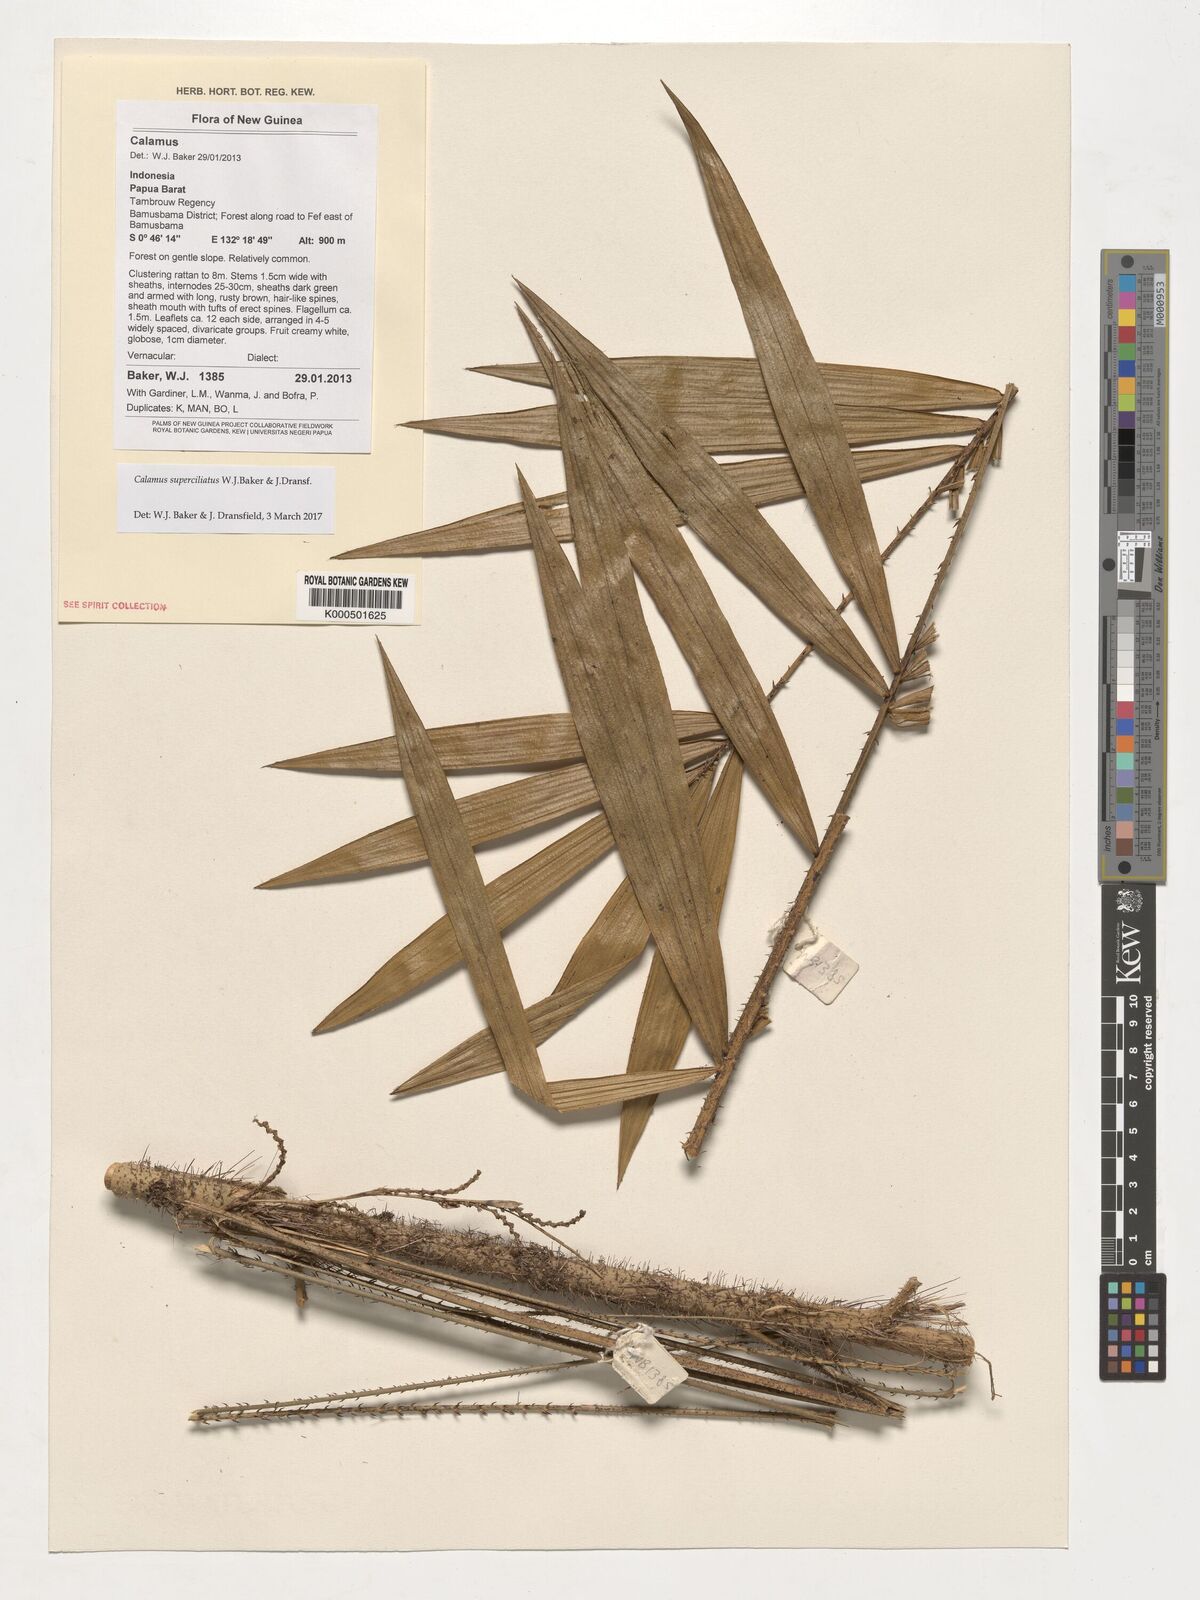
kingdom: Plantae
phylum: Tracheophyta
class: Liliopsida
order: Arecales
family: Arecaceae
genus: Calamus
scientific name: Calamus superciliatus
